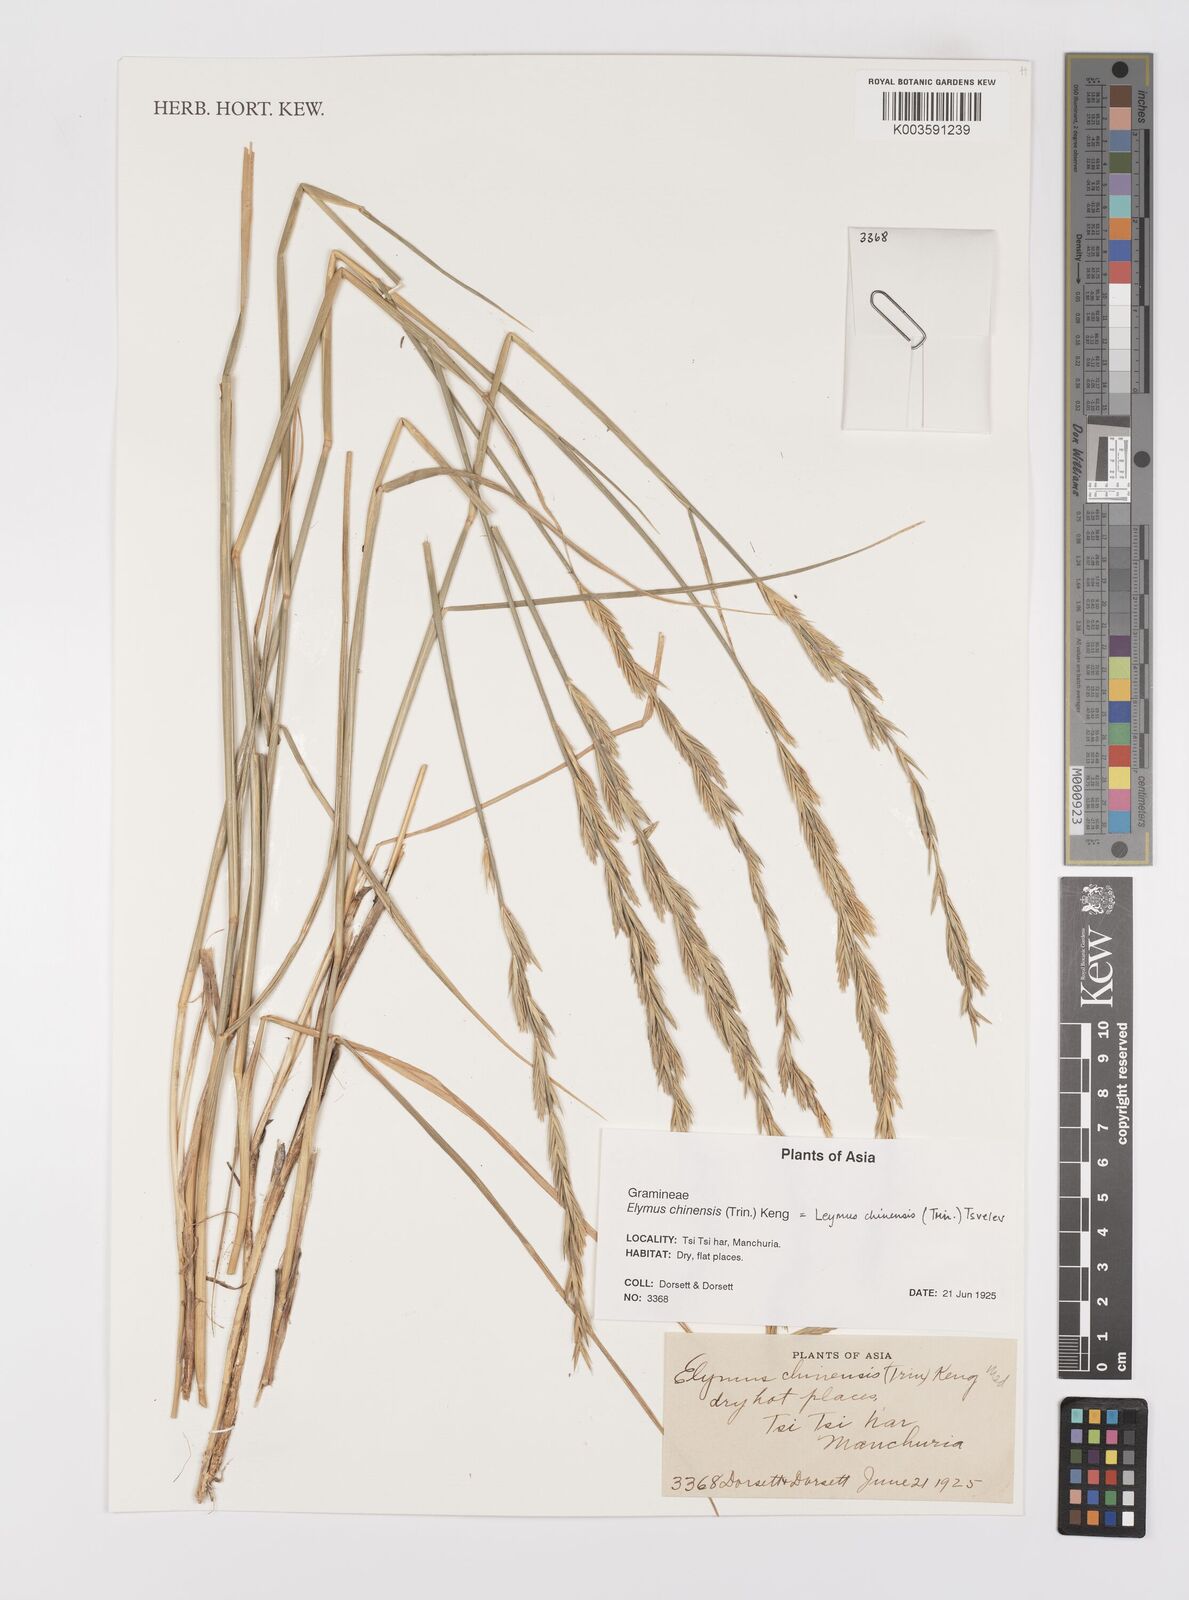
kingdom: Plantae
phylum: Tracheophyta
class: Liliopsida
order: Poales
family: Poaceae
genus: Leymus
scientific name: Leymus chinensis
